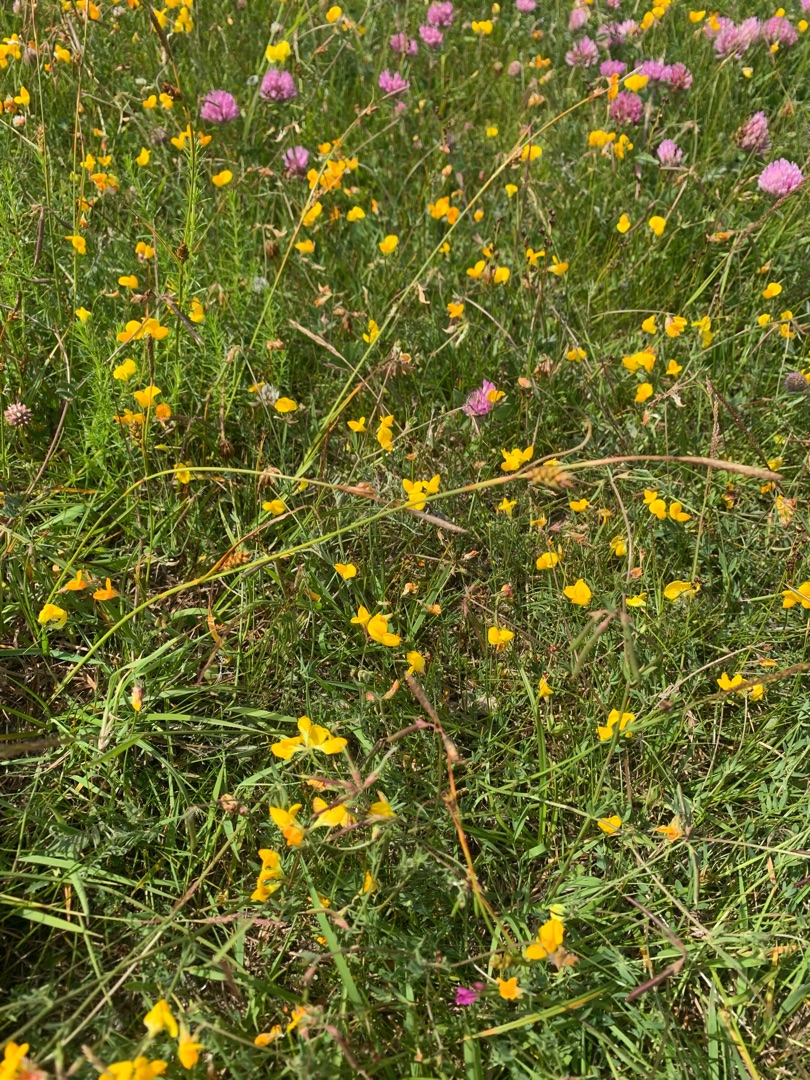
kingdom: Plantae
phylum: Tracheophyta
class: Liliopsida
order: Poales
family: Cyperaceae
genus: Carex
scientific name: Carex distans
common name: Fjernakset star
